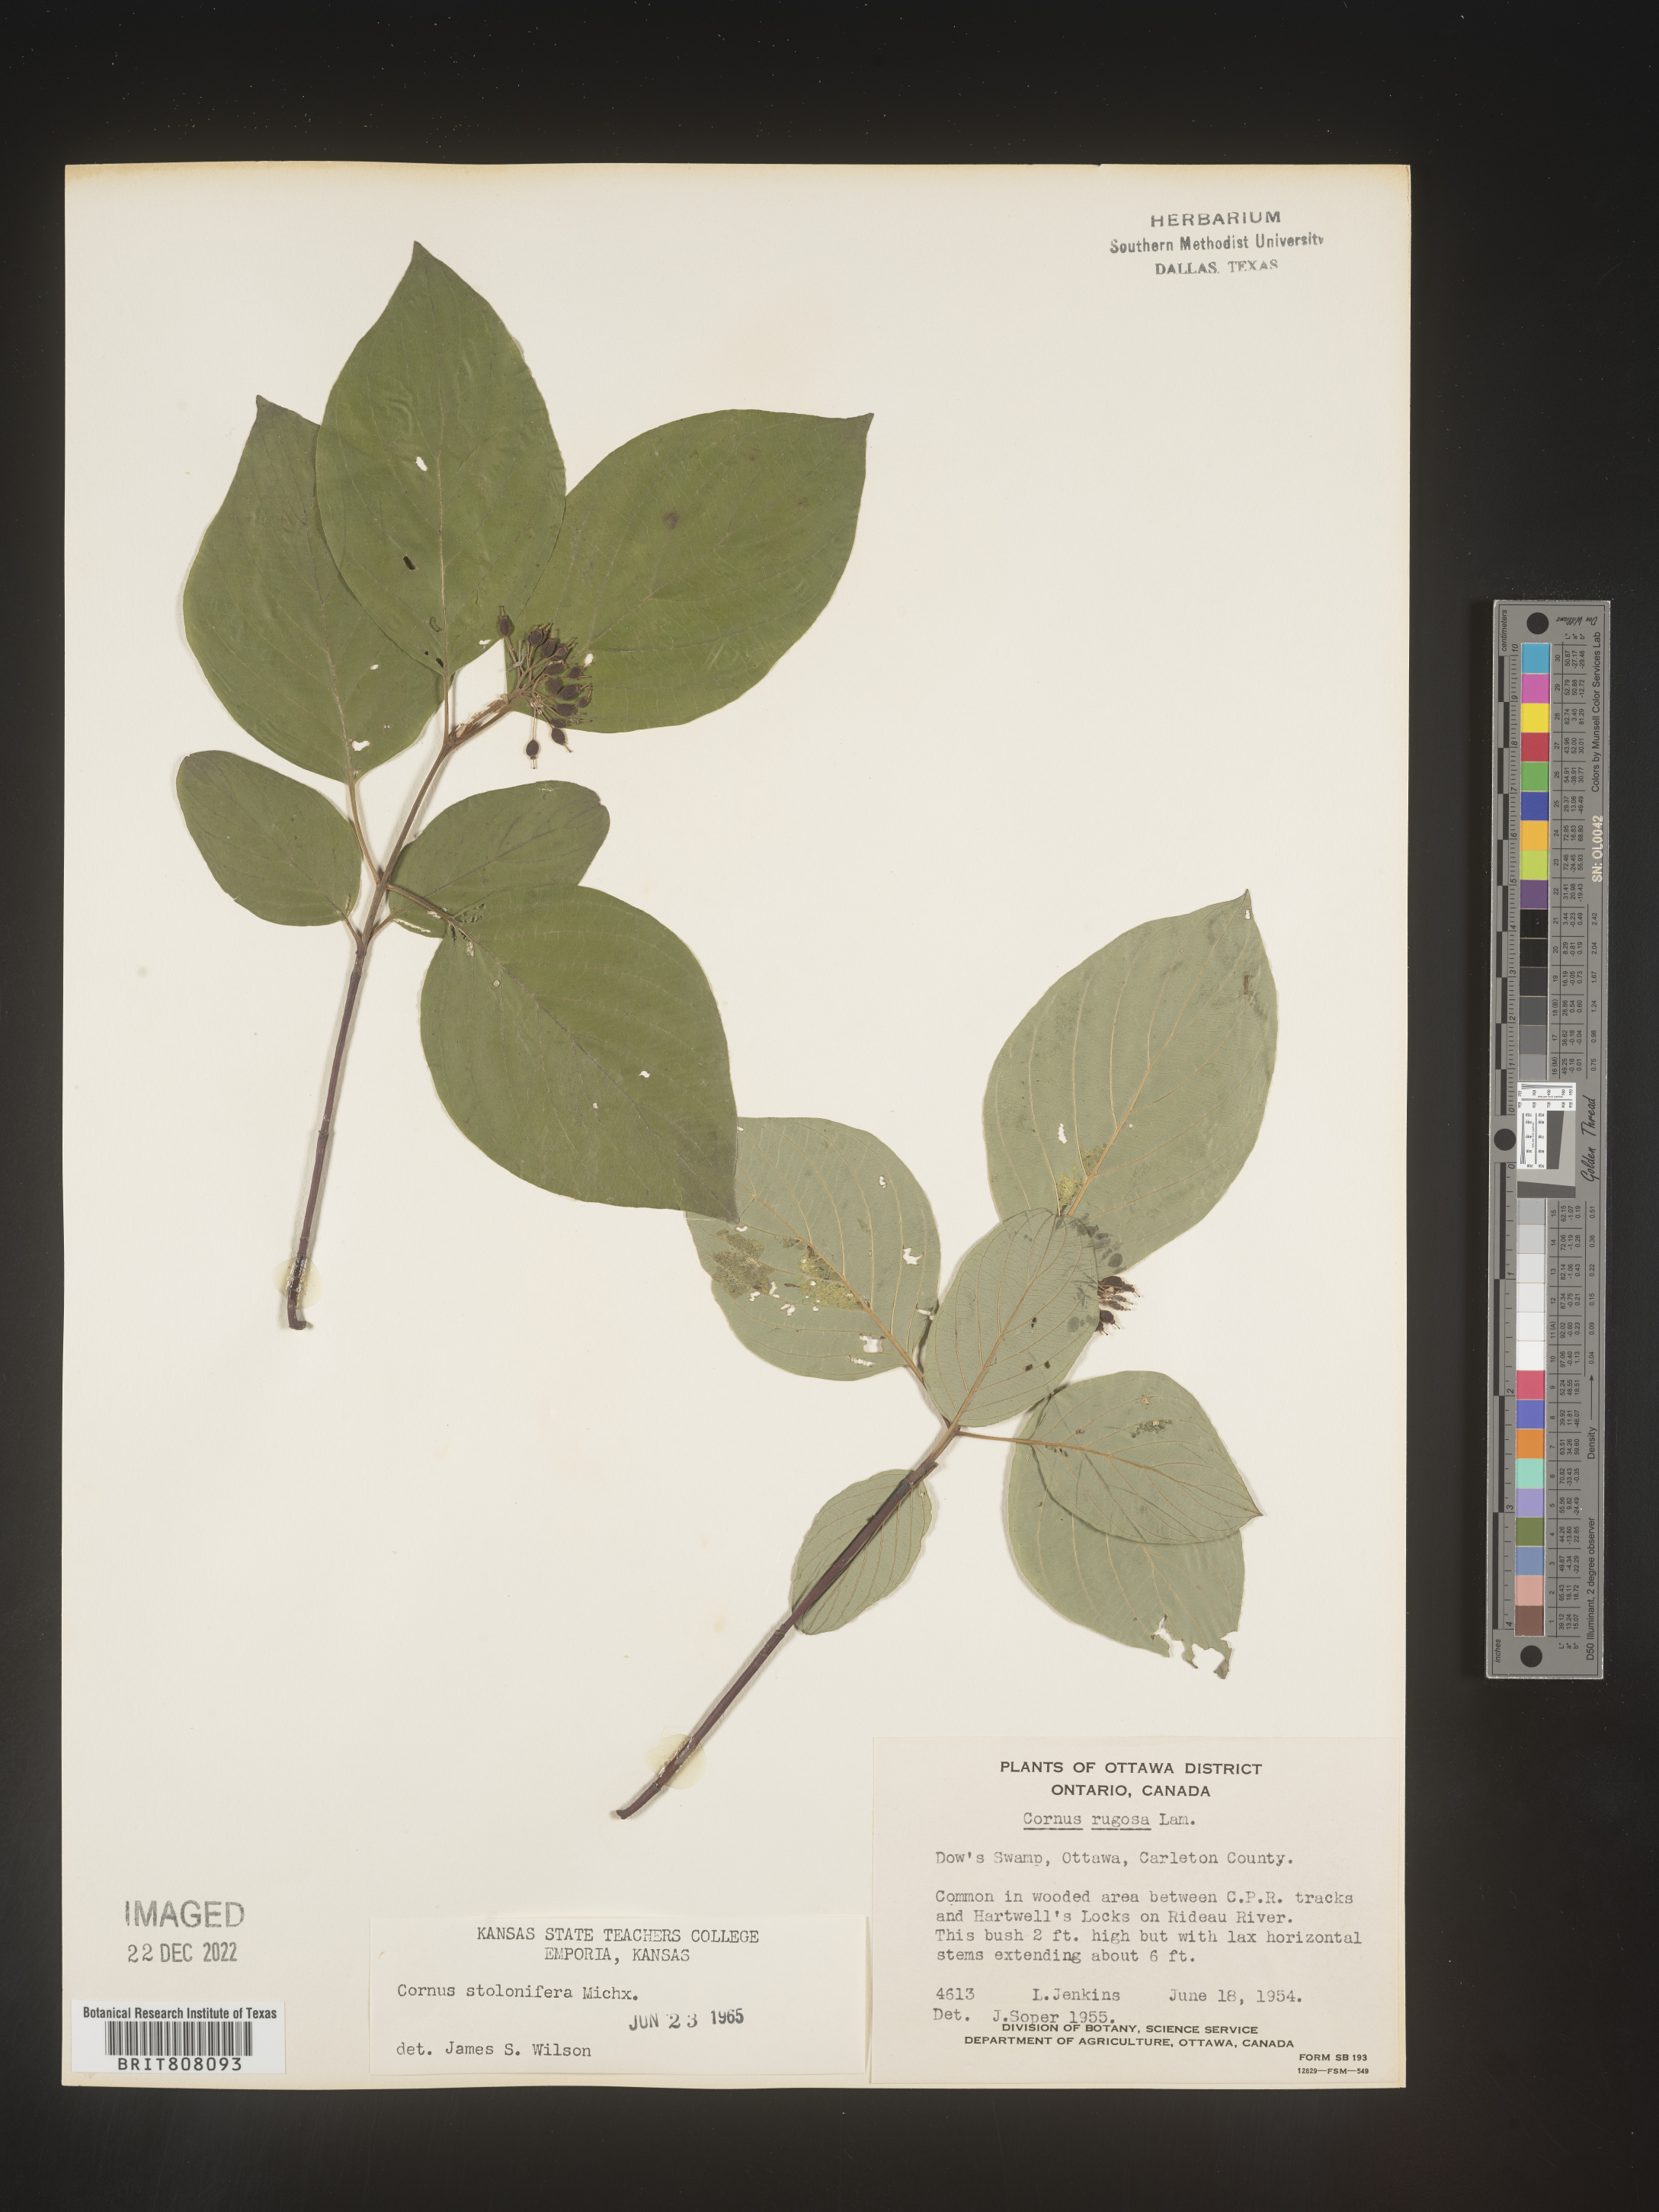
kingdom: Plantae
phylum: Tracheophyta
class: Magnoliopsida
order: Cornales
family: Cornaceae
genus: Cornus
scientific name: Cornus sericea
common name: Red-osier dogwood
